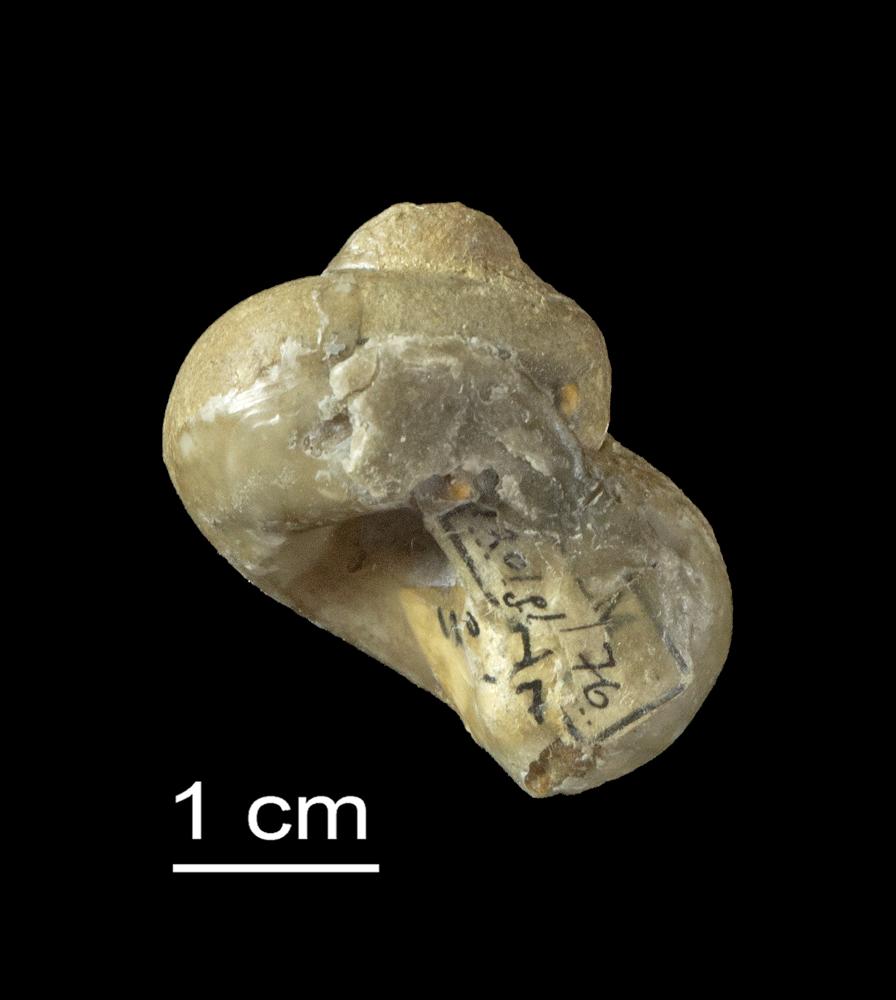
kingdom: Animalia
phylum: Mollusca
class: Gastropoda
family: Holopeidae
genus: Holopea
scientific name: Holopea
